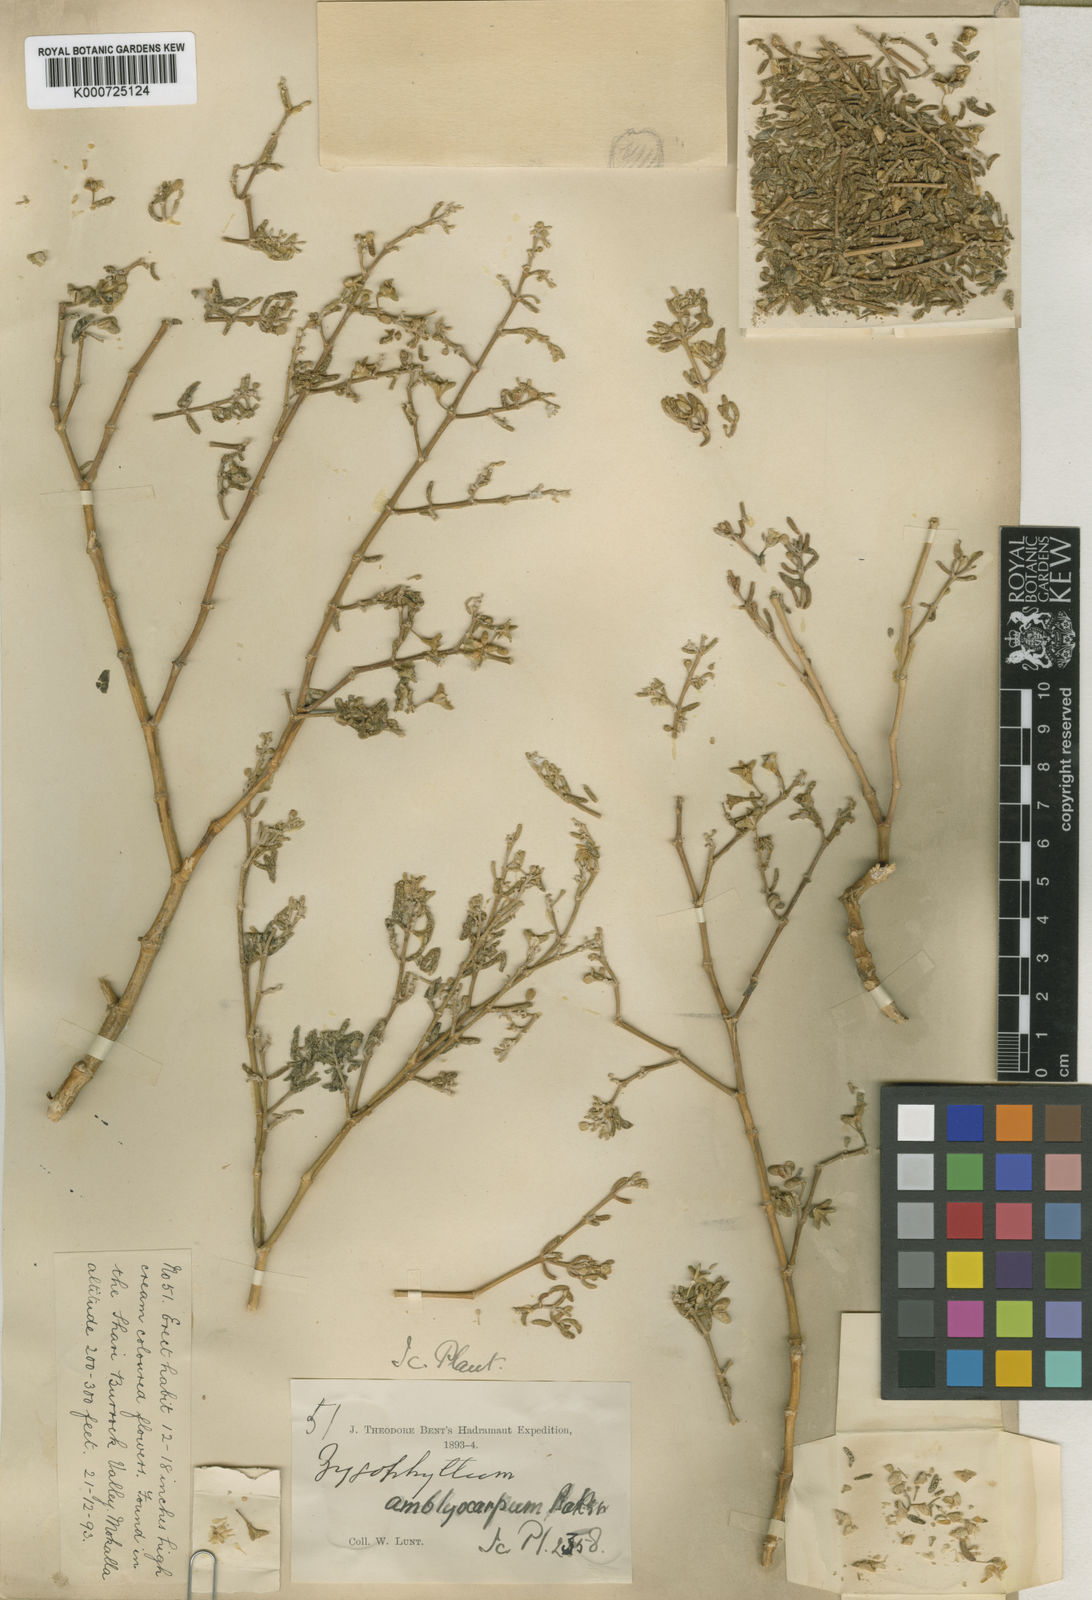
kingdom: Plantae
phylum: Tracheophyta
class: Magnoliopsida
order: Zygophyllales
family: Zygophyllaceae
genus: Tetraena
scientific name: Tetraena alba
